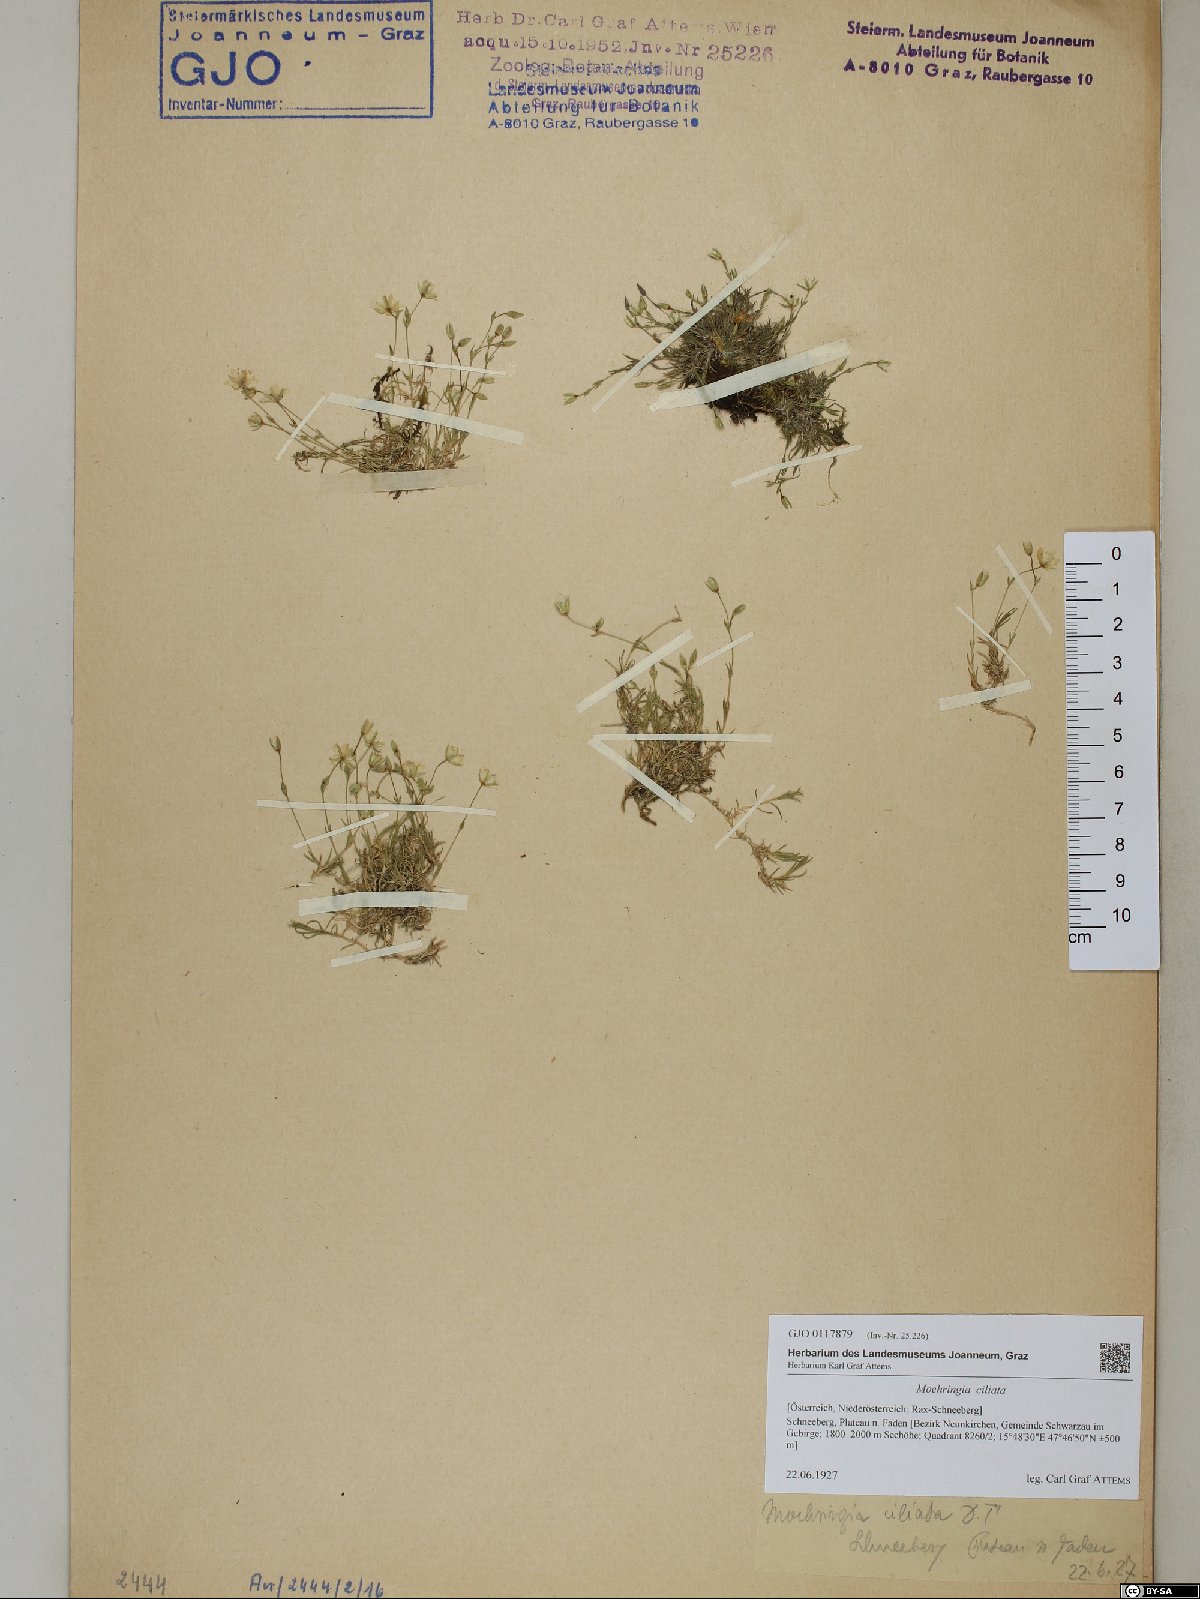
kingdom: Plantae
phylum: Tracheophyta
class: Magnoliopsida
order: Caryophyllales
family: Caryophyllaceae
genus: Moehringia
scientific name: Moehringia ciliata
